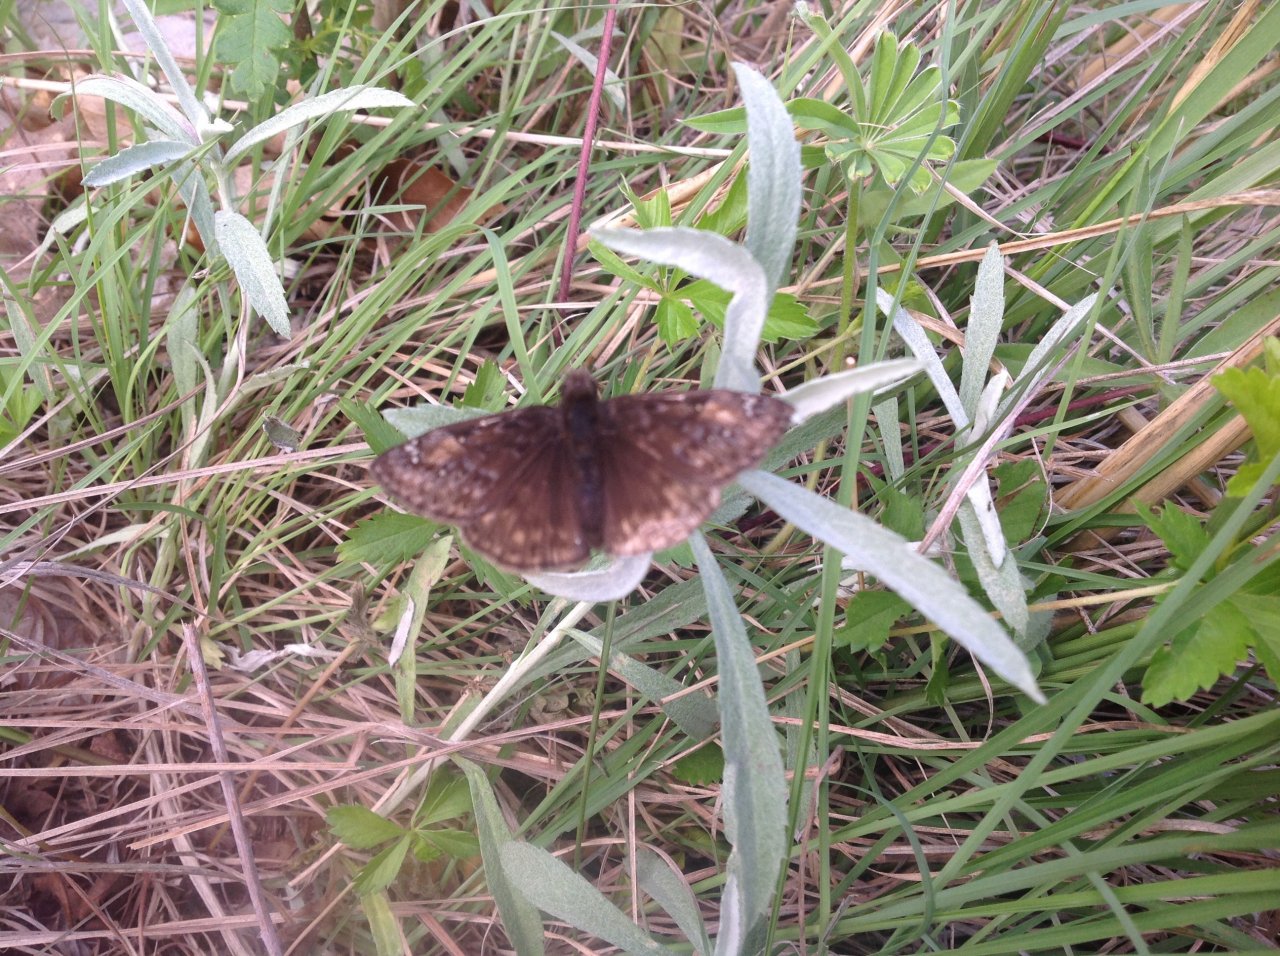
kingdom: Animalia
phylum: Arthropoda
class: Insecta
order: Lepidoptera
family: Hesperiidae
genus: Erynnis
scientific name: Erynnis
